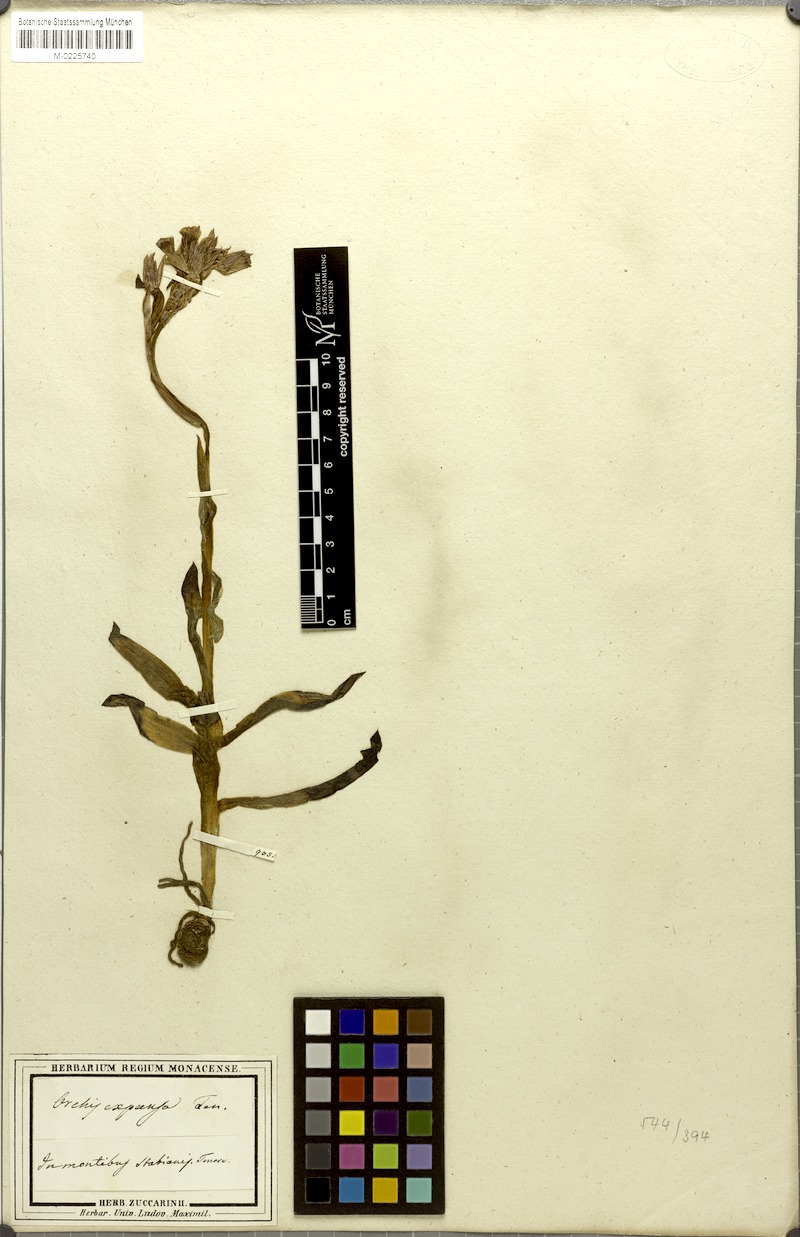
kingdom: Plantae
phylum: Tracheophyta
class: Liliopsida
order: Asparagales
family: Orchidaceae
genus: Anacamptis
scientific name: Anacamptis papilionacea
